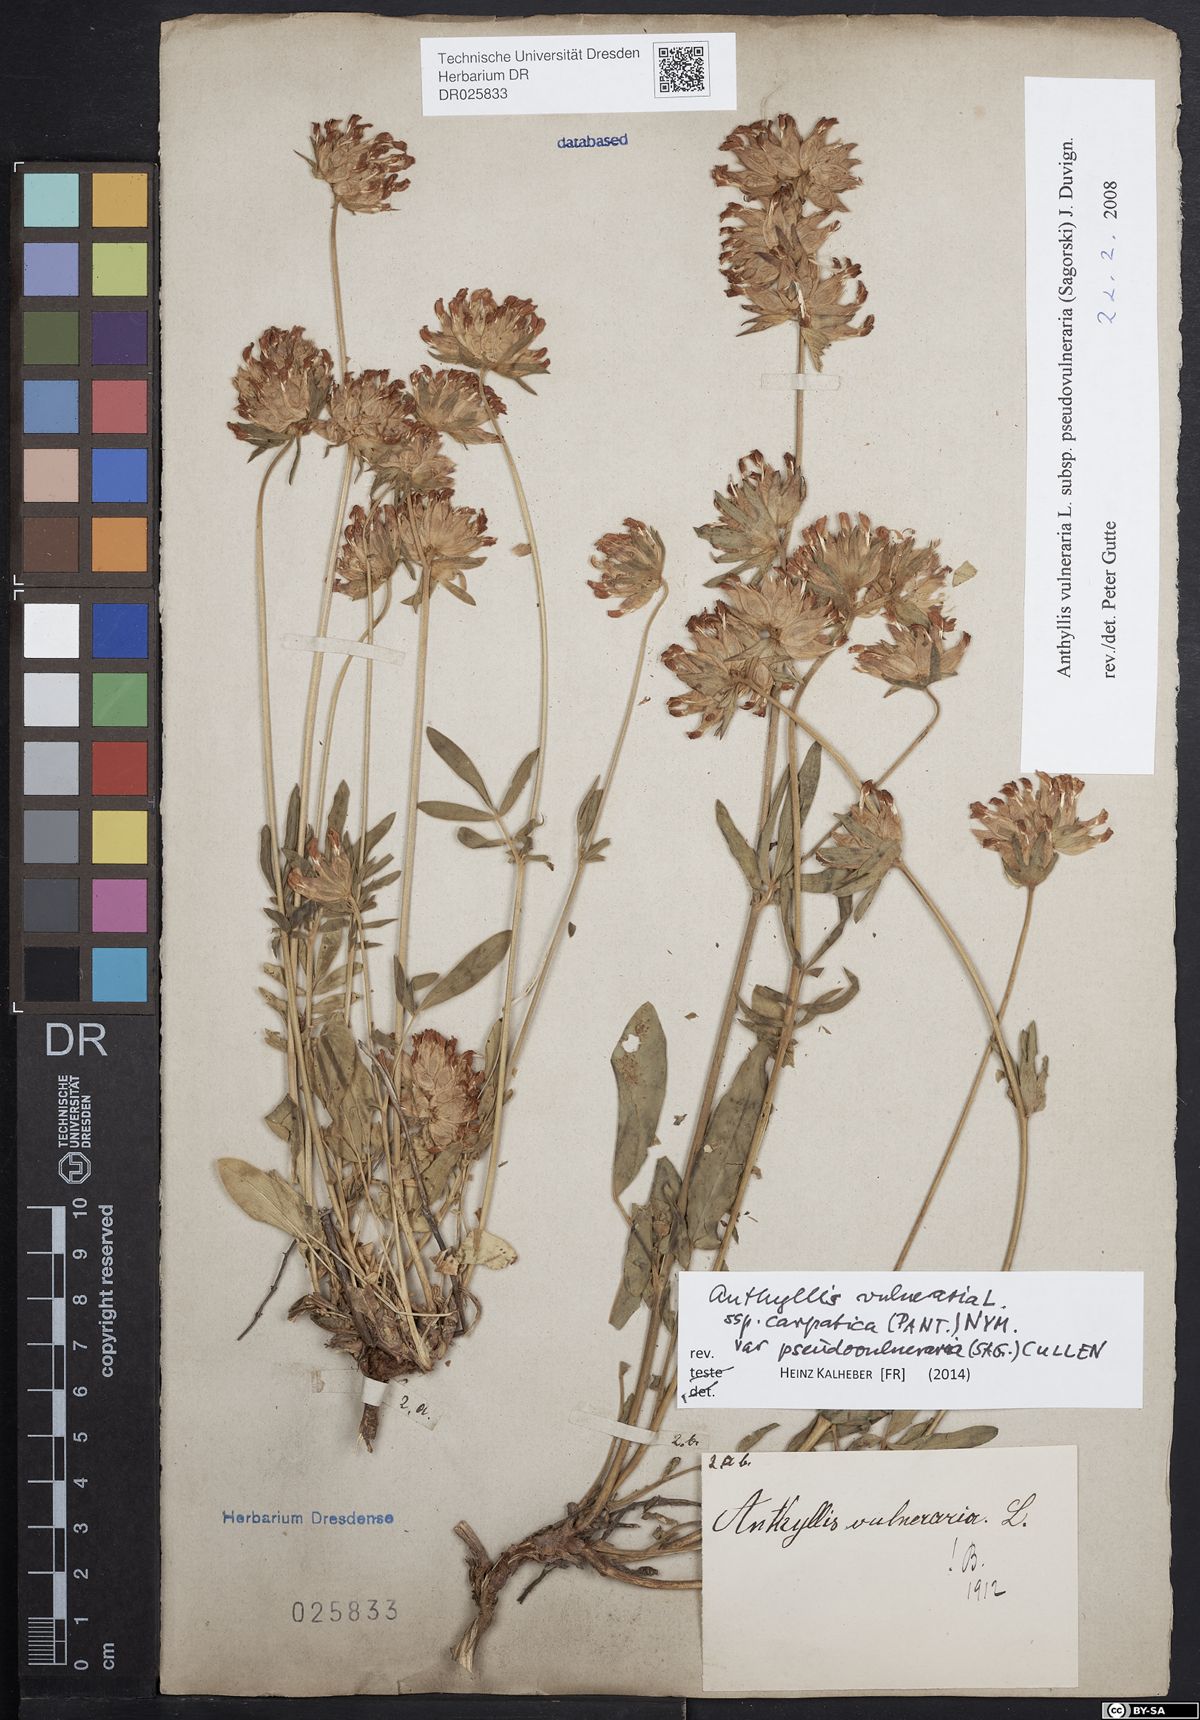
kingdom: Plantae
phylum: Tracheophyta
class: Magnoliopsida
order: Fabales
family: Fabaceae
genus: Anthyllis
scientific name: Anthyllis vulneraria
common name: Kidney vetch
